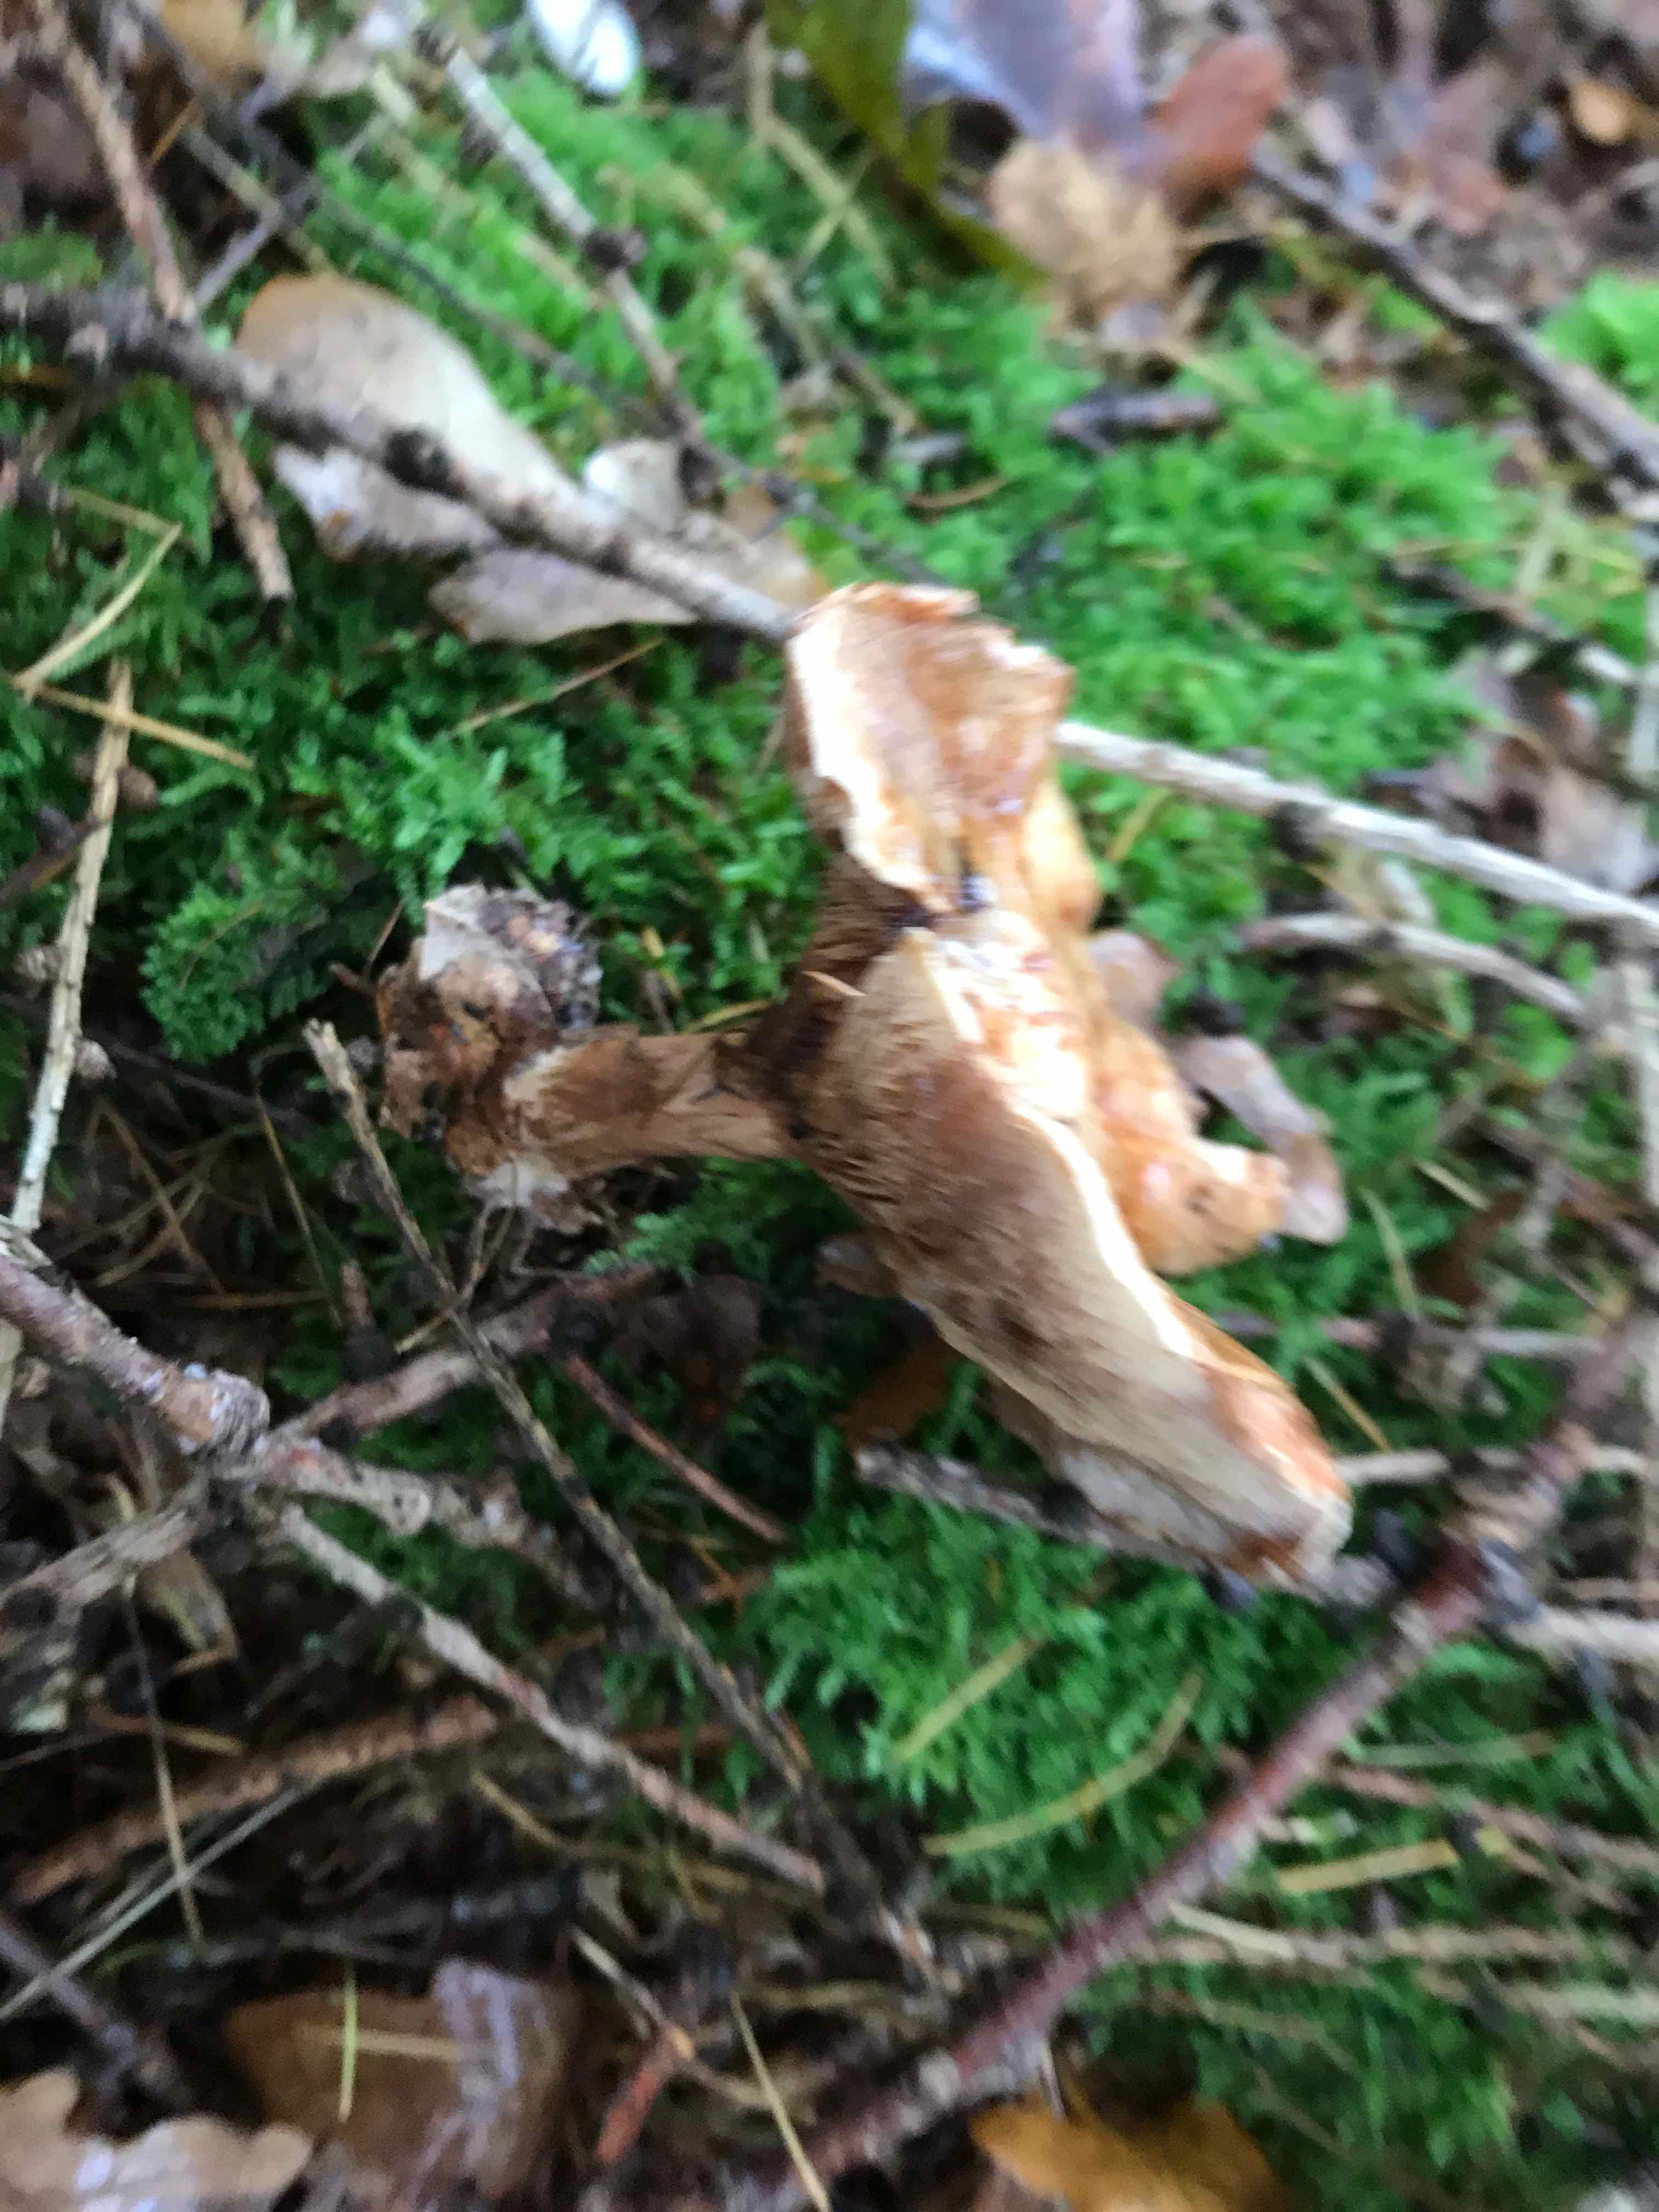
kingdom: Fungi
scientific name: Fungi
